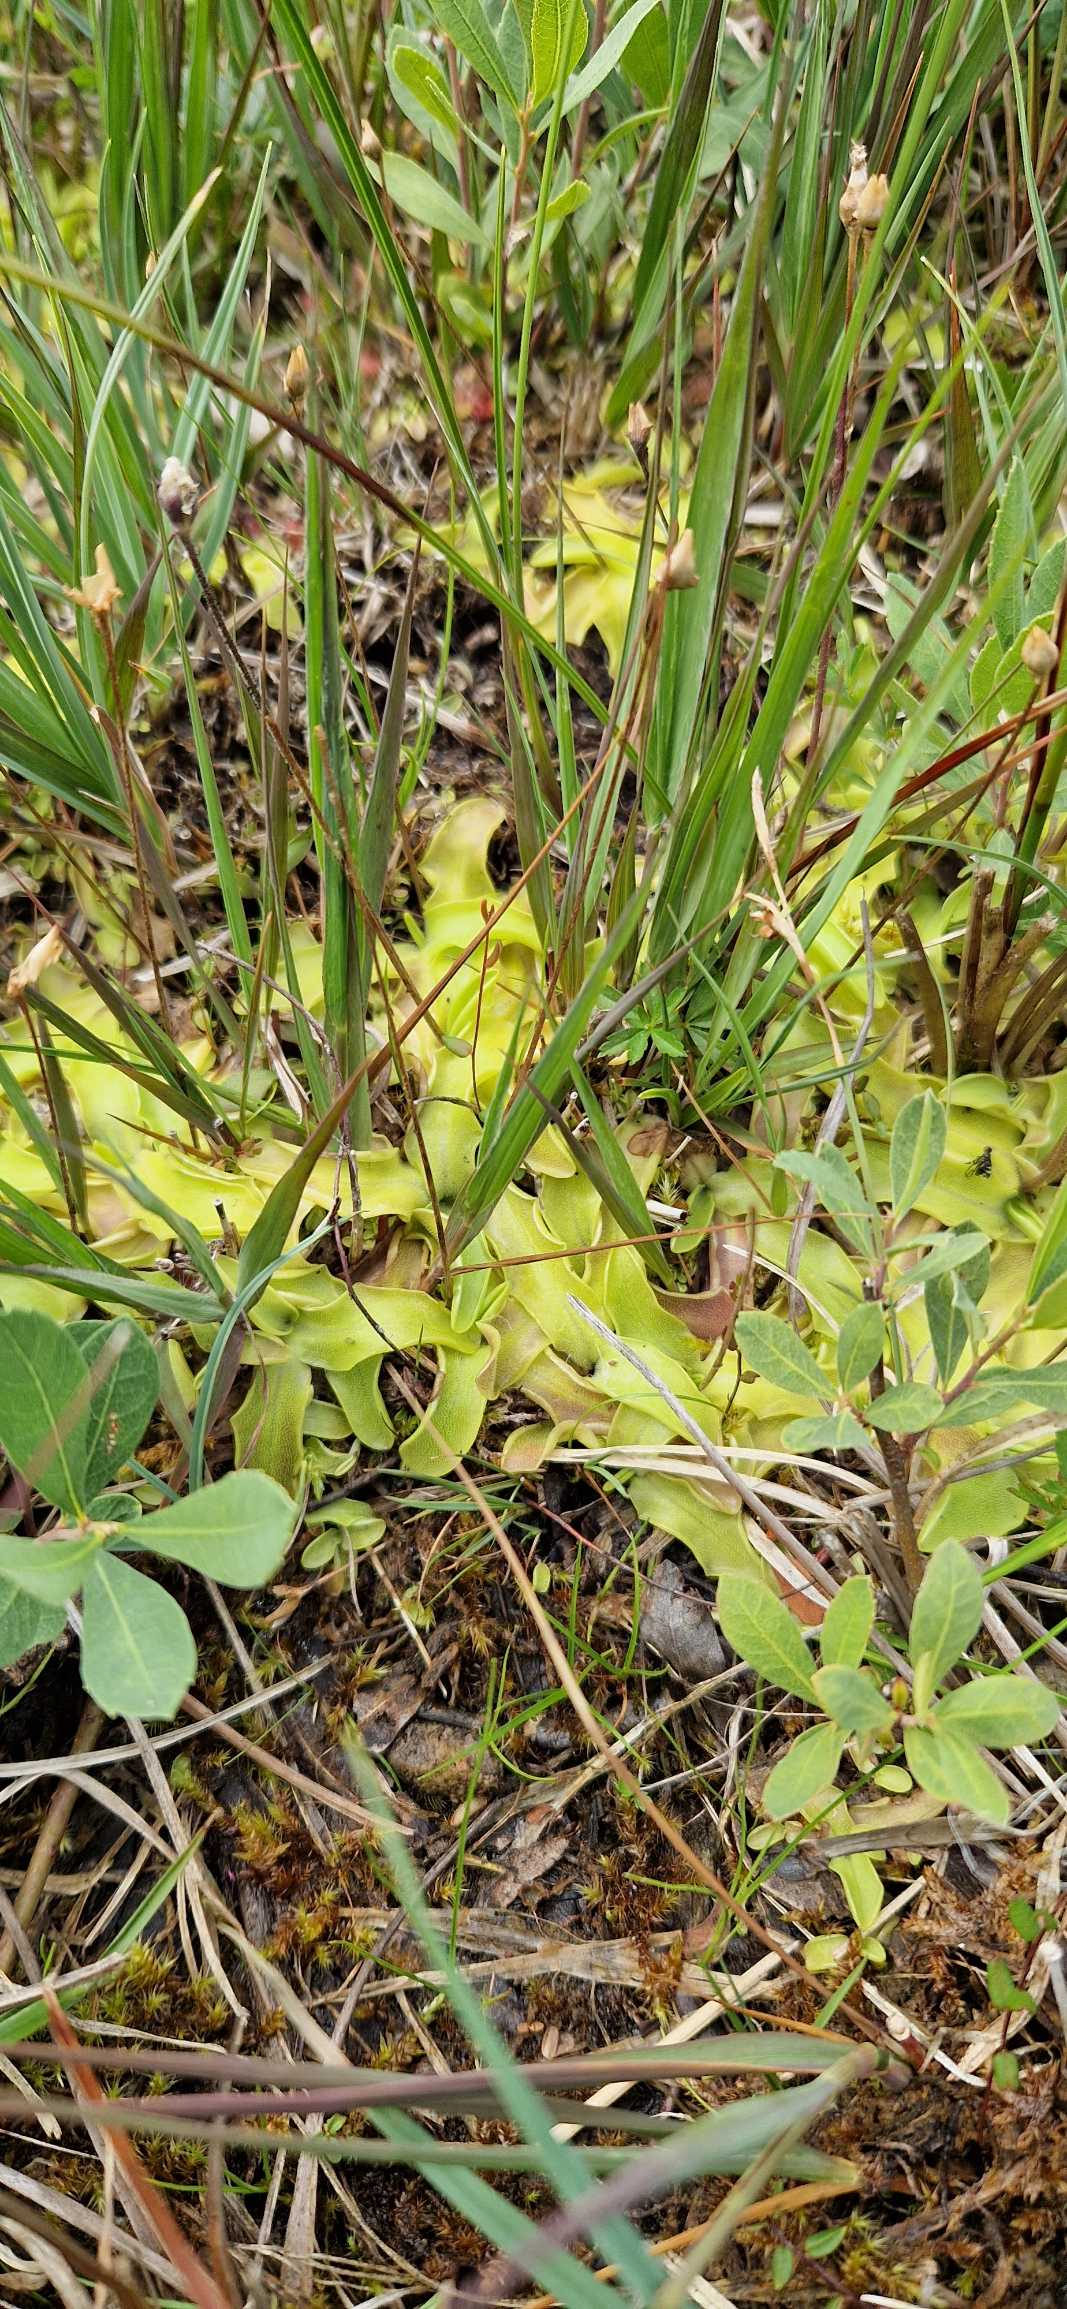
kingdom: Plantae
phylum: Tracheophyta
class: Magnoliopsida
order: Lamiales
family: Lentibulariaceae
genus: Pinguicula
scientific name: Pinguicula vulgaris
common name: Vibefedt
